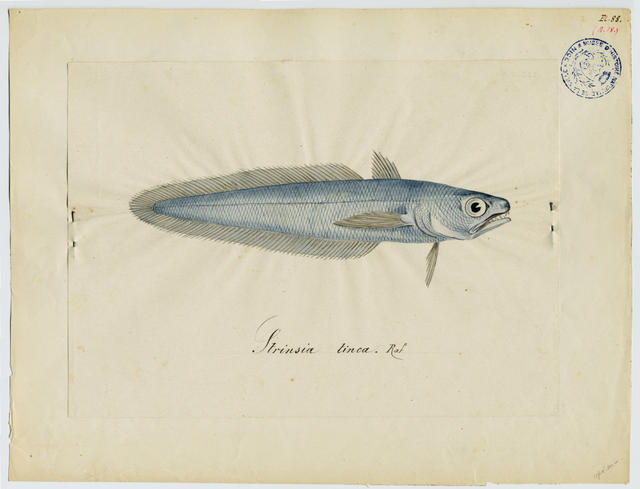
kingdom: Animalia
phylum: Chordata
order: Gadiformes
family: Moridae
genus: Gadella
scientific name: Gadella maraldi
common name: Gadella
